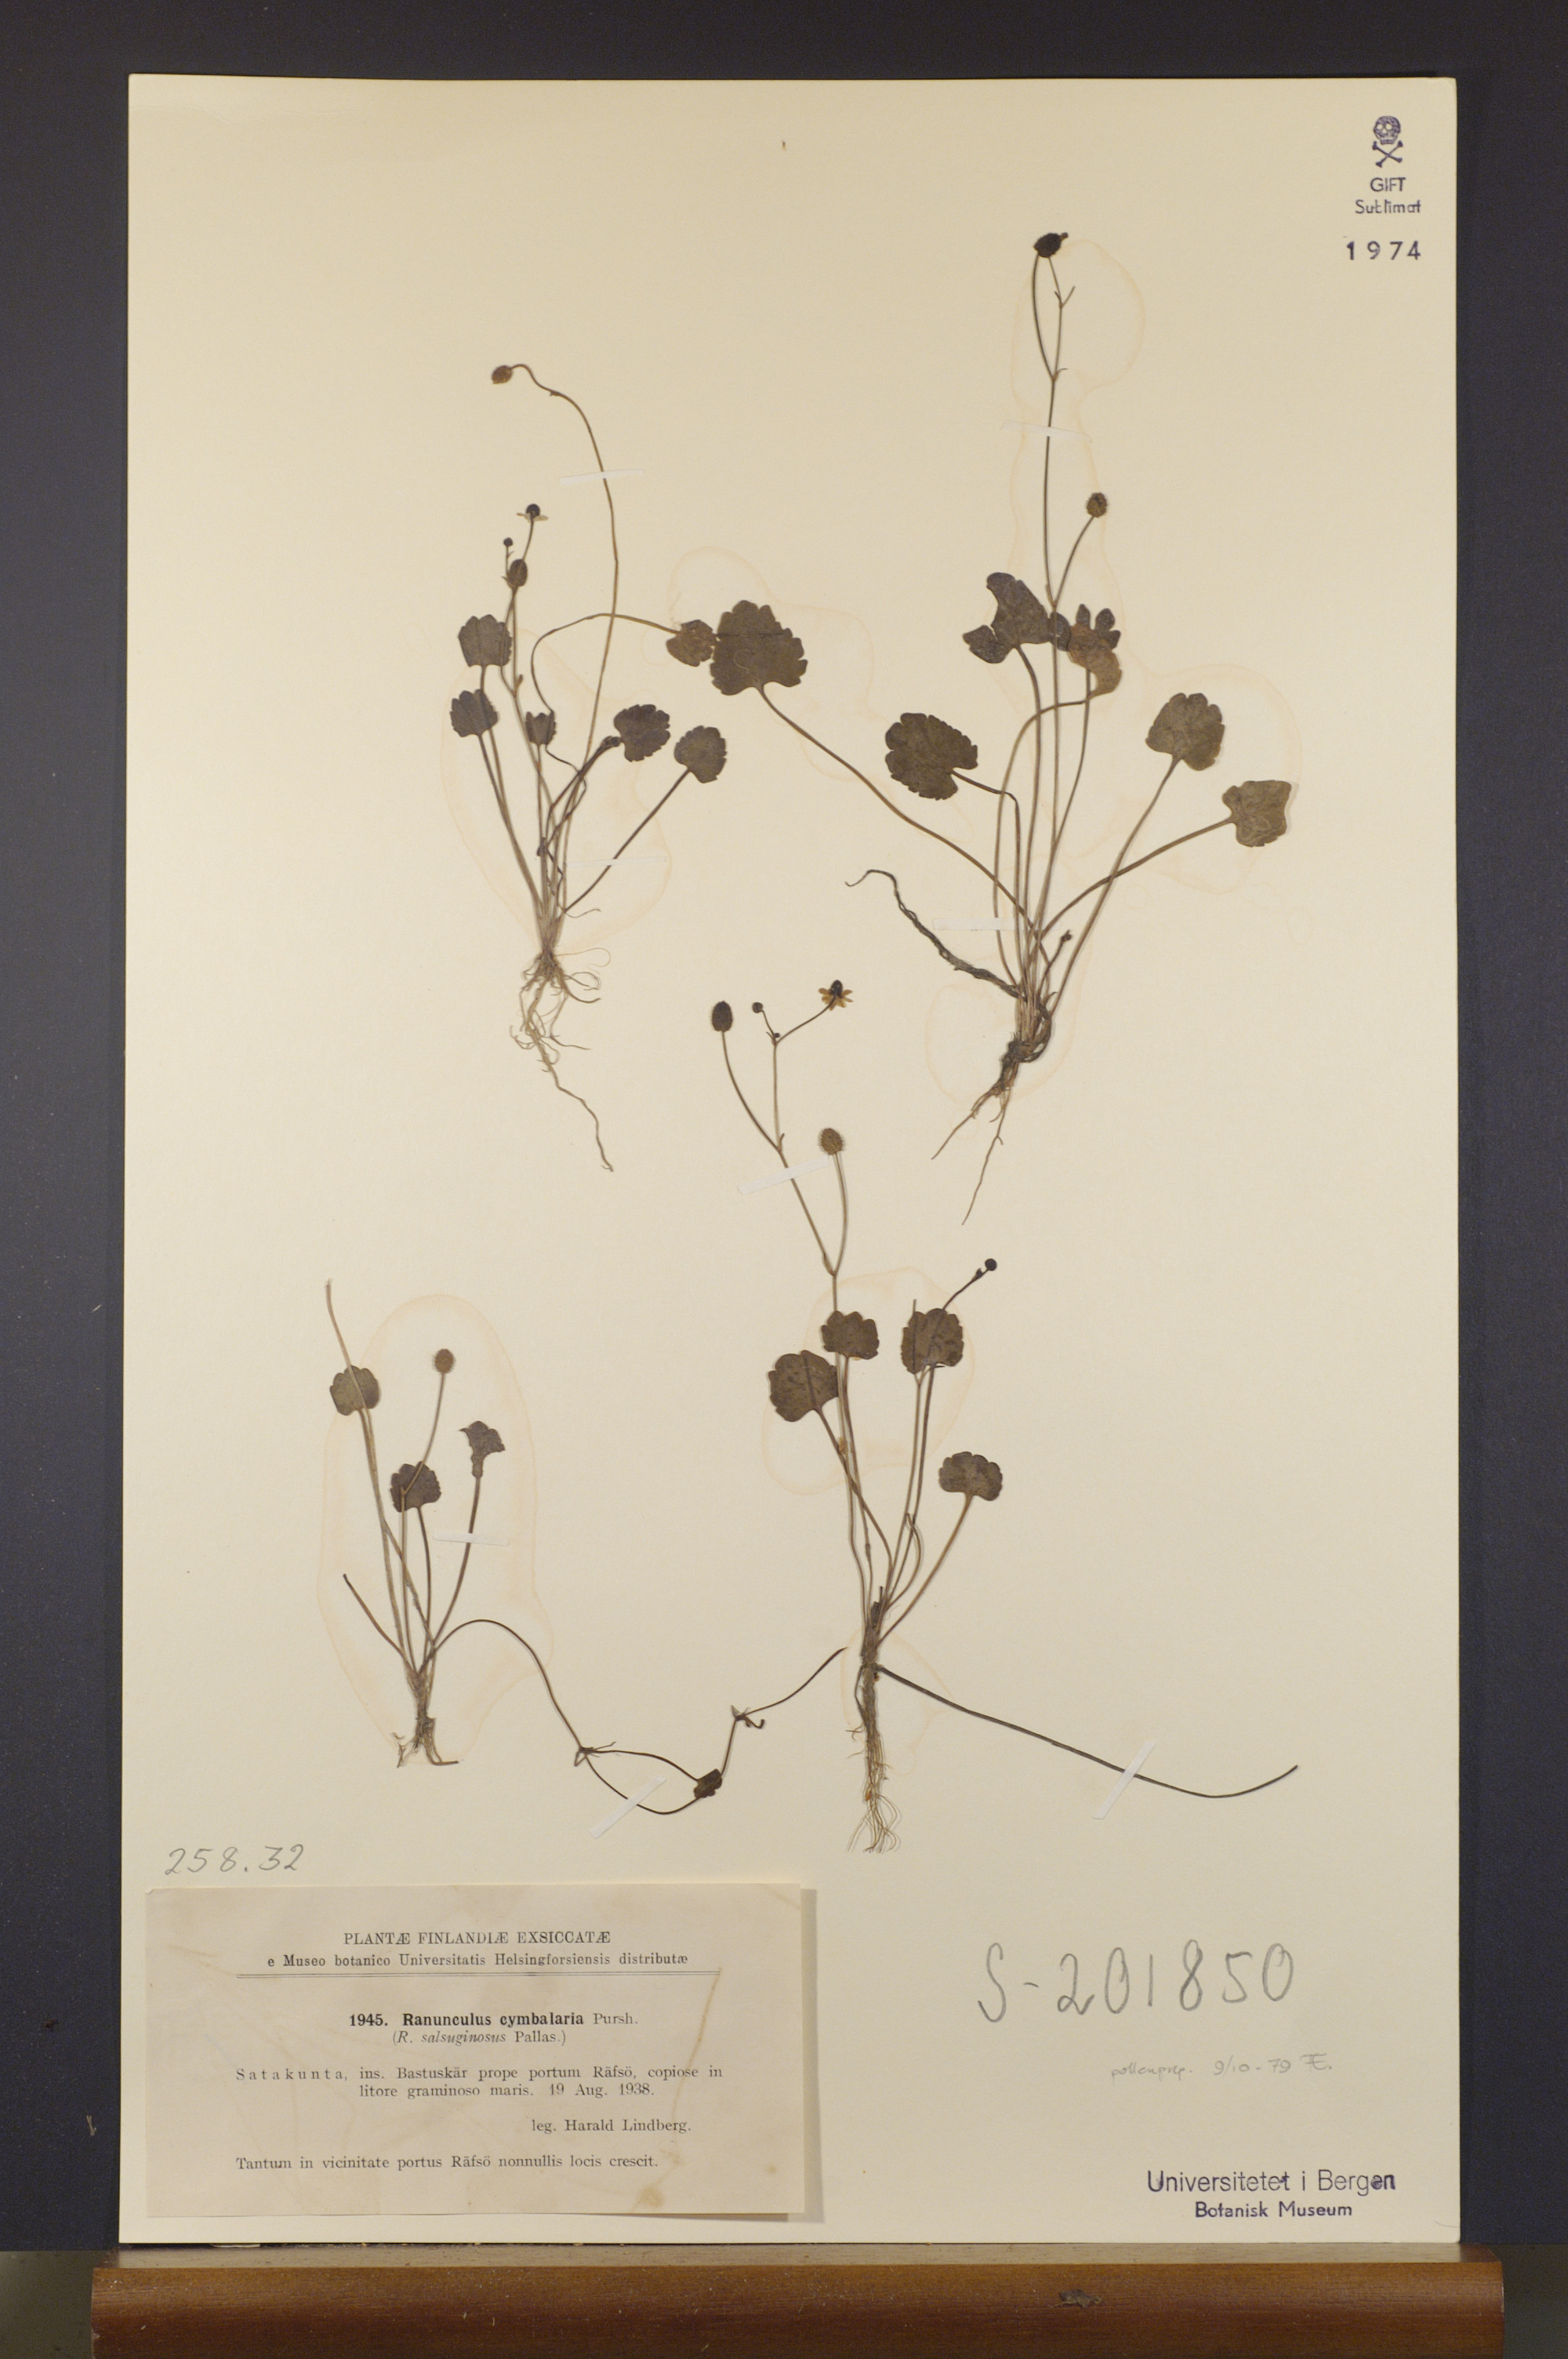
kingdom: Plantae
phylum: Tracheophyta
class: Magnoliopsida
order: Ranunculales
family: Ranunculaceae
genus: Halerpestes
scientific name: Halerpestes cymbalaria
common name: Seaside crowfoot
